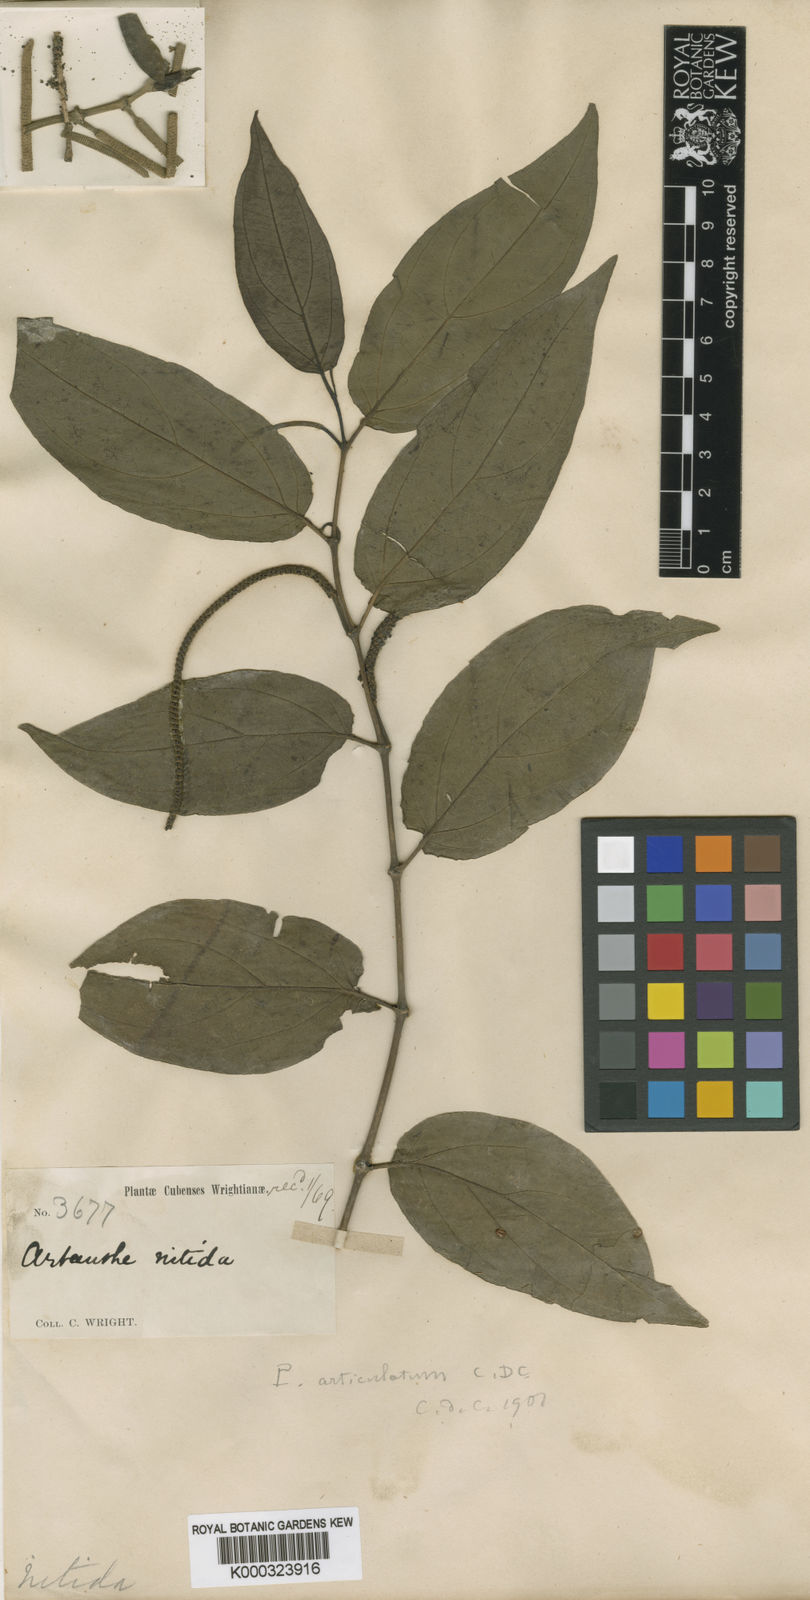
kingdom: Plantae
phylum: Tracheophyta
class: Magnoliopsida
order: Piperales
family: Piperaceae
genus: Piper
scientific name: Piper
